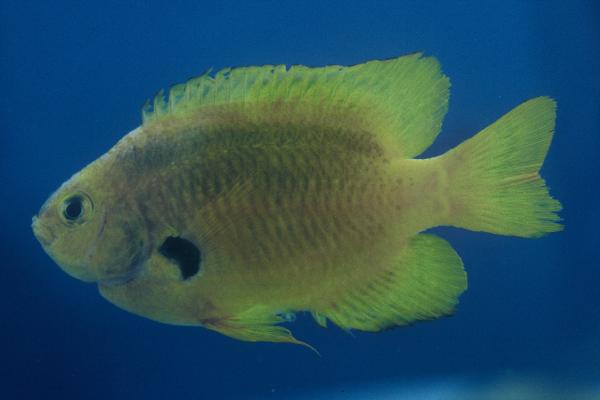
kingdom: Animalia
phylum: Chordata
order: Perciformes
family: Pomacentridae
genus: Pomacentrus
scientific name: Pomacentrus sulfureus
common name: Sulfur damsel
